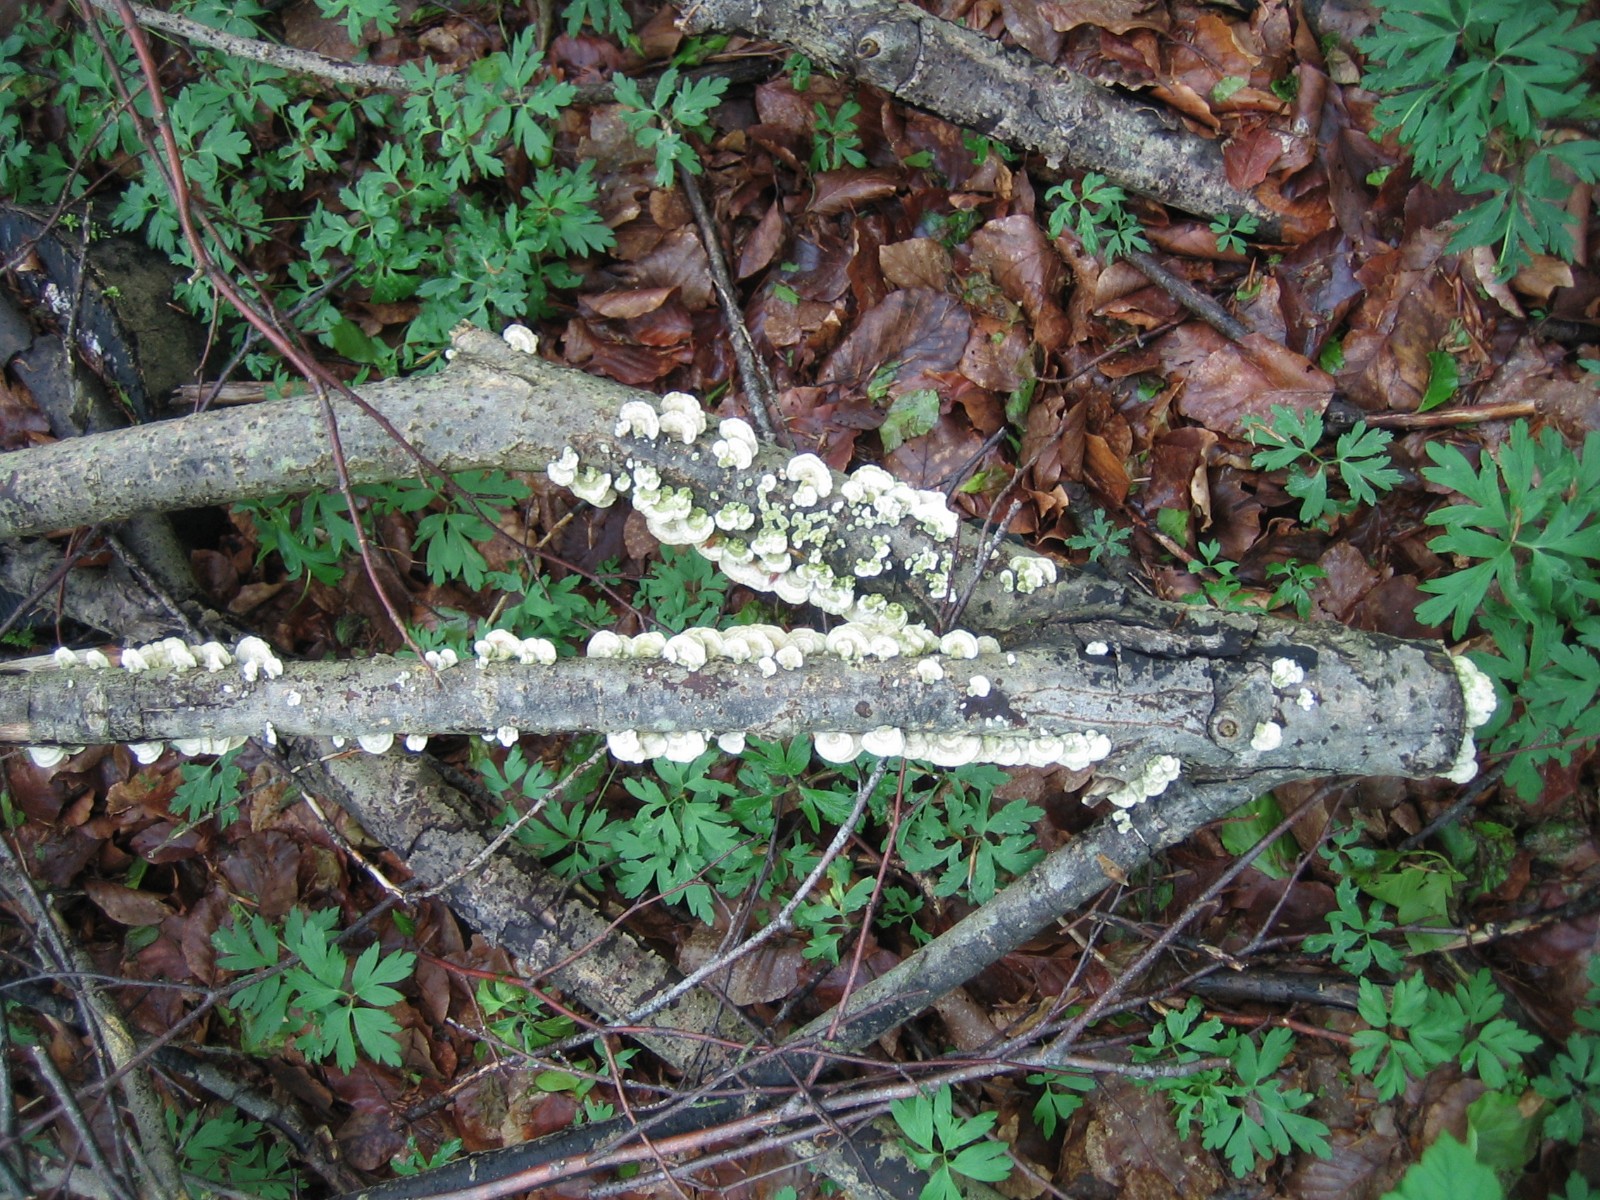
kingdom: Fungi
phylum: Basidiomycota
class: Agaricomycetes
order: Polyporales
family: Polyporaceae
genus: Trametes
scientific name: Trametes hirsuta
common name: håret læderporesvamp
